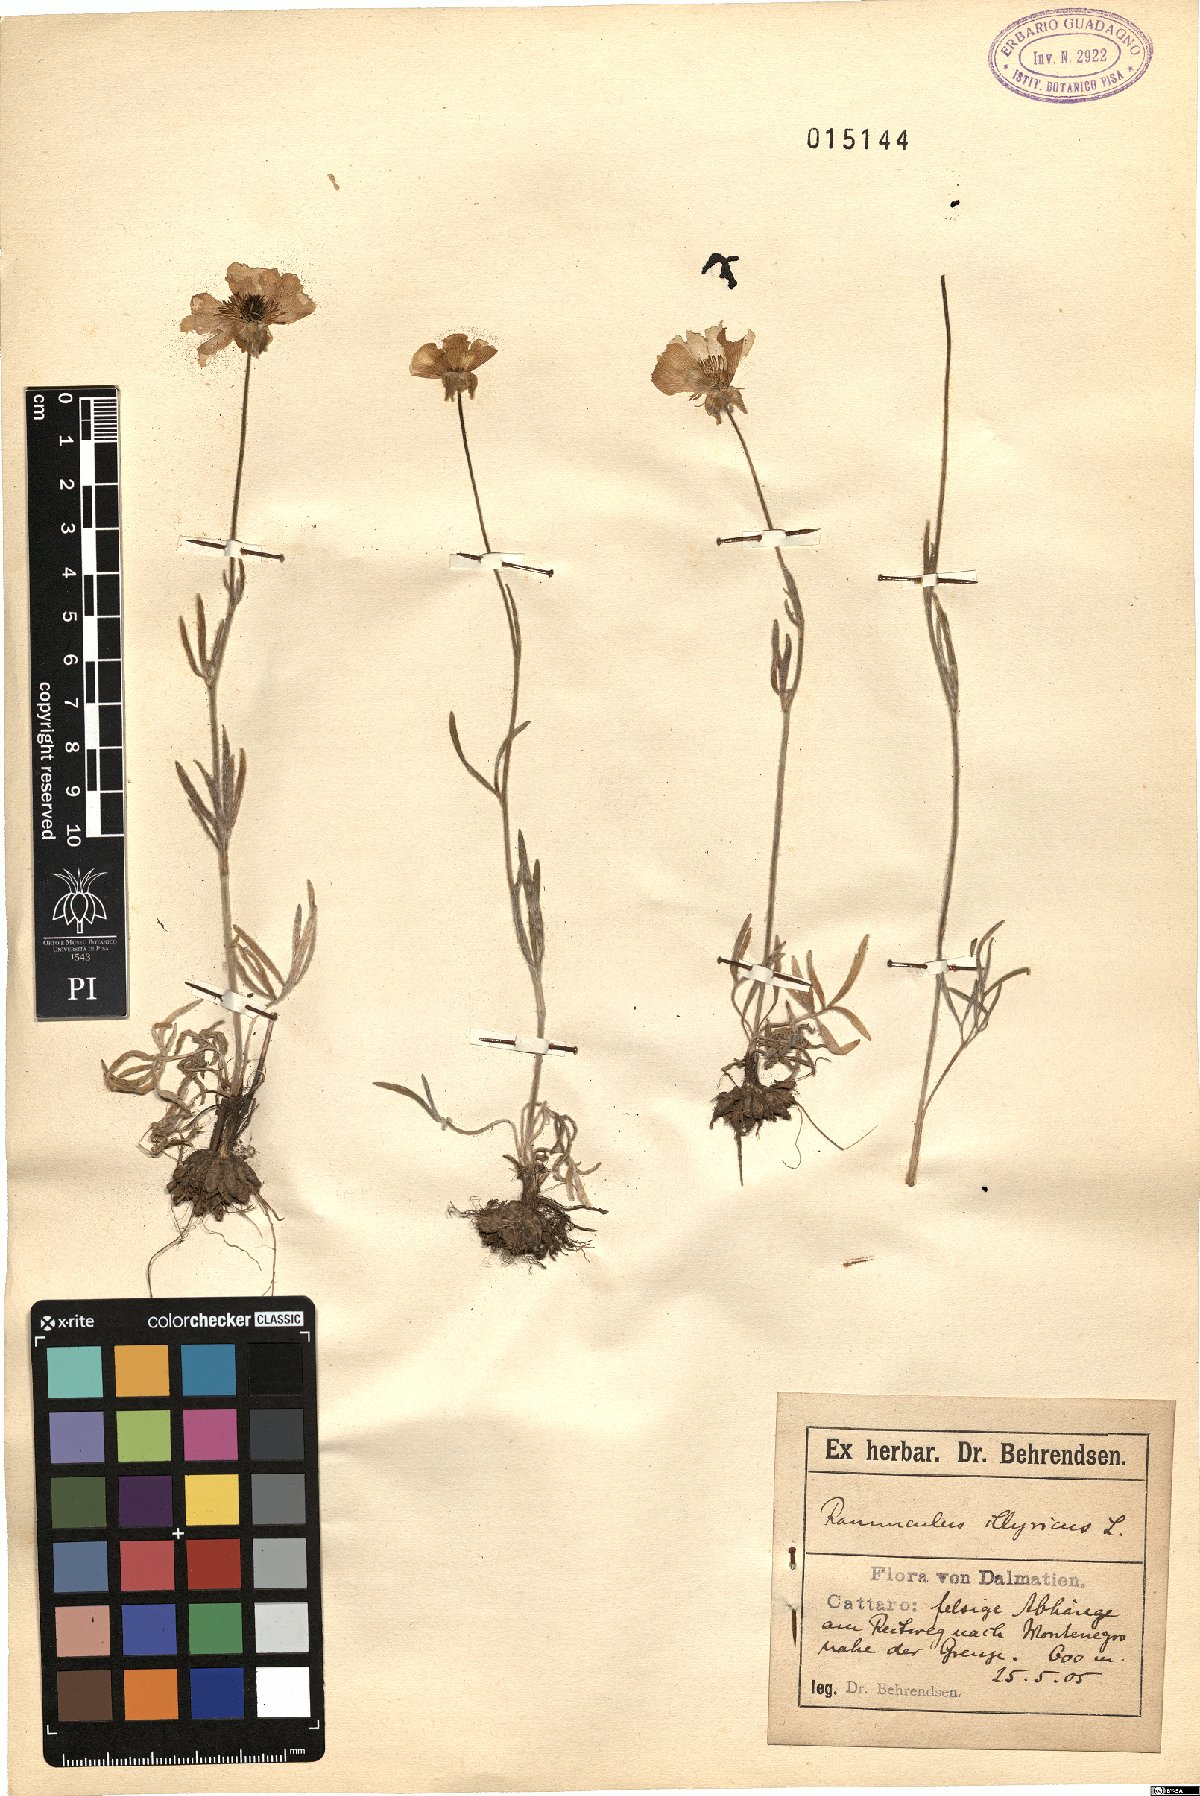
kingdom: Plantae
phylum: Tracheophyta
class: Magnoliopsida
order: Ranunculales
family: Ranunculaceae
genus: Ranunculus
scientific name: Ranunculus illyricus
